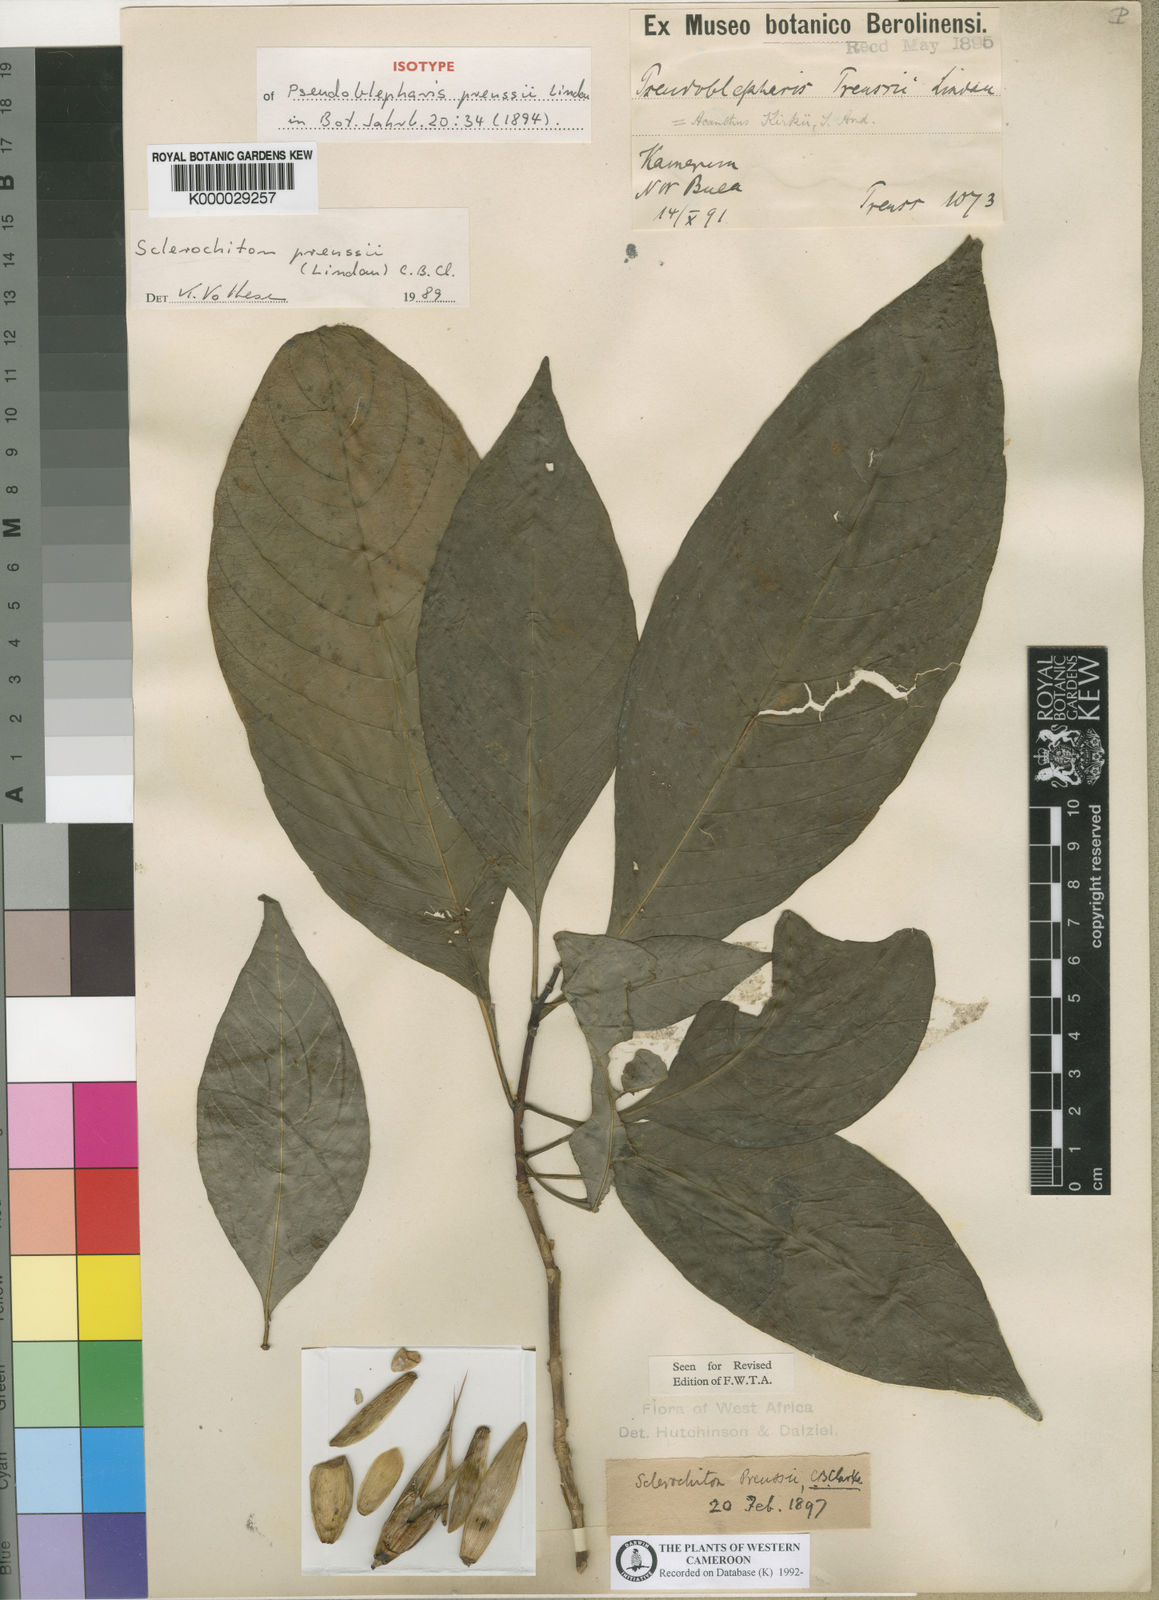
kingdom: Plantae
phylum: Tracheophyta
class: Magnoliopsida
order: Lamiales
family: Acanthaceae
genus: Sclerochiton
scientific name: Sclerochiton preussii
